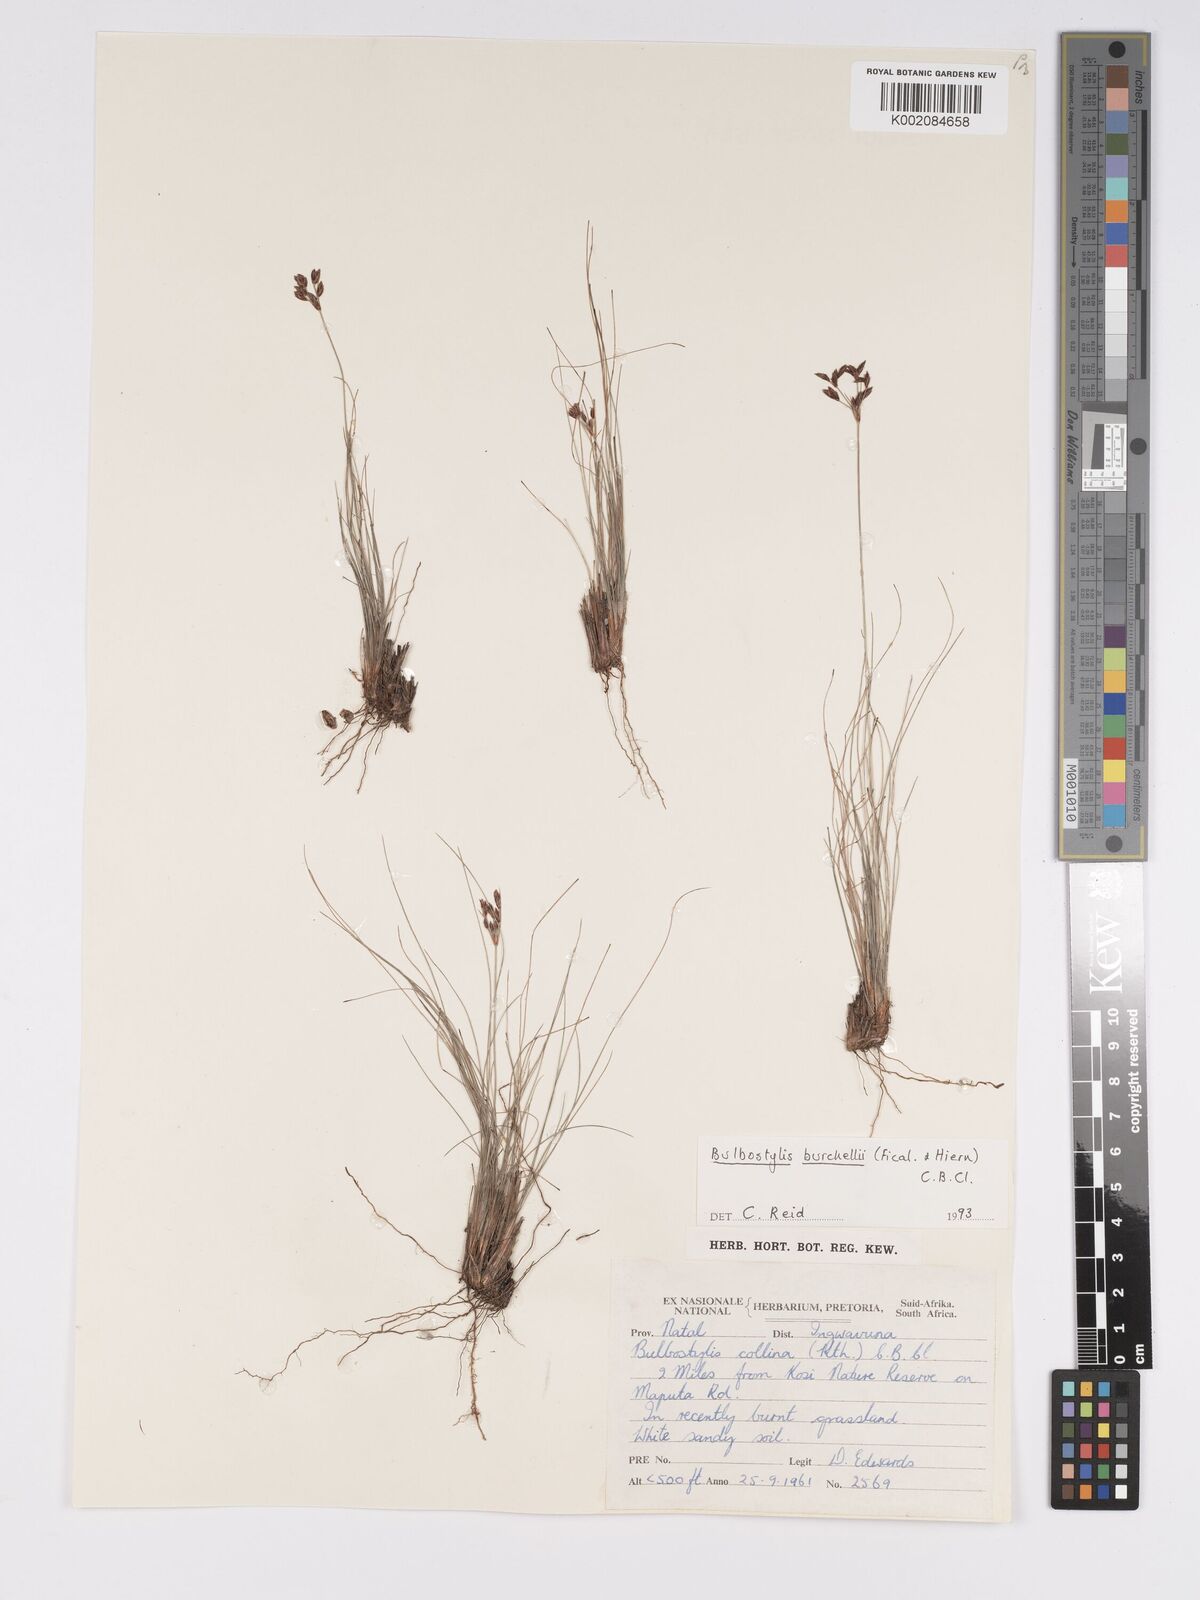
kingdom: Plantae
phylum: Tracheophyta
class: Liliopsida
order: Poales
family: Cyperaceae
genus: Bulbostylis
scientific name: Bulbostylis burchellii
